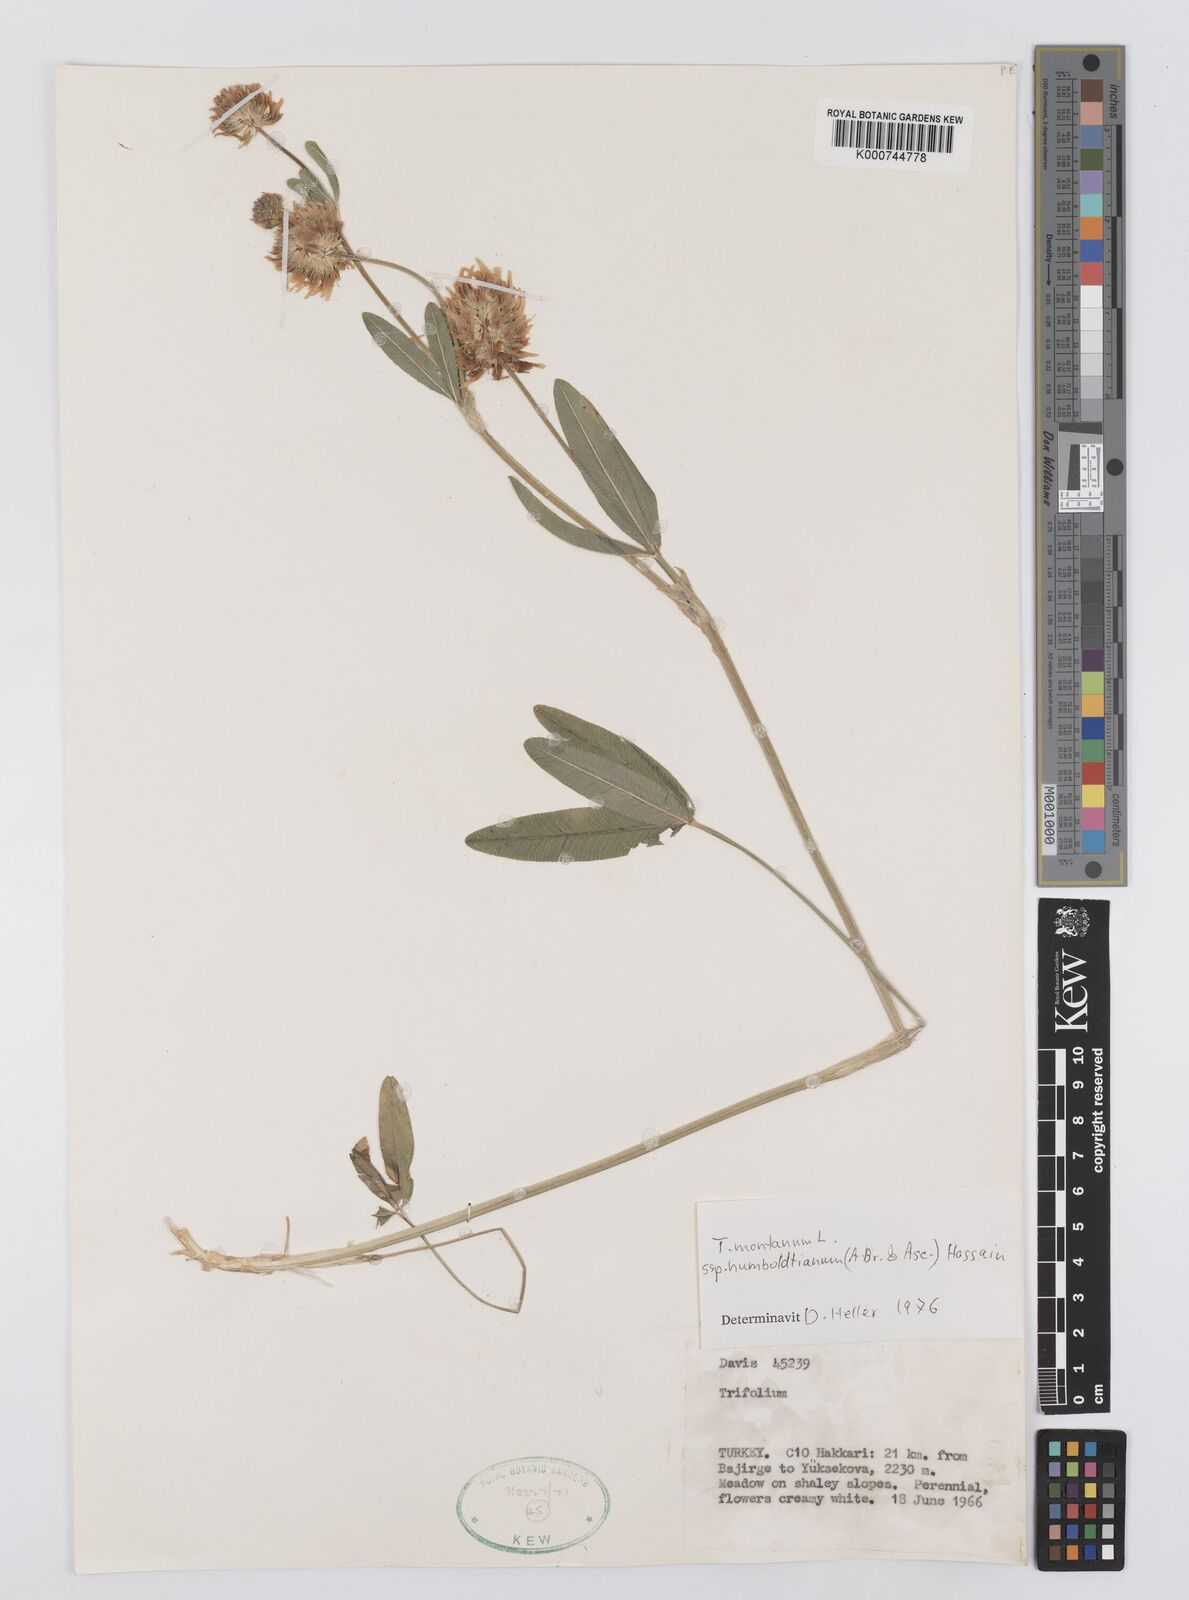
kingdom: Plantae
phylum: Tracheophyta
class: Magnoliopsida
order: Fabales
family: Fabaceae
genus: Trifolium
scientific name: Trifolium
